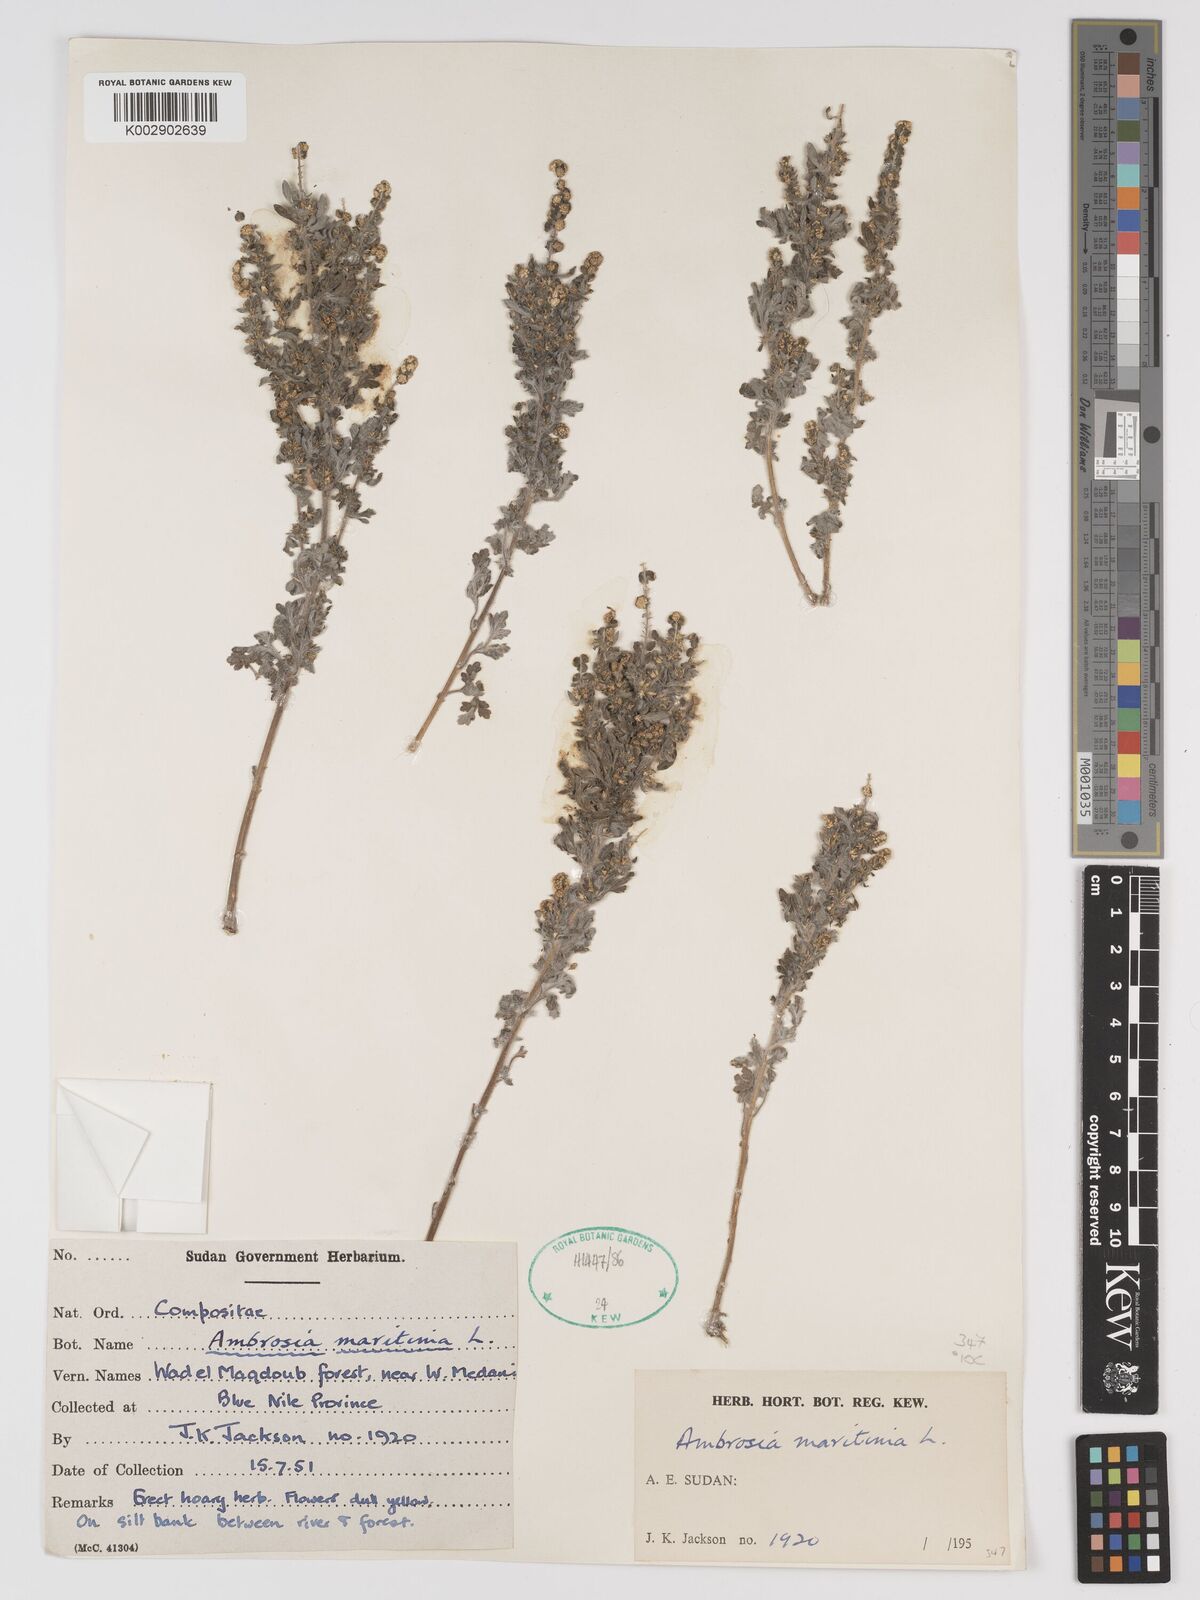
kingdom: Plantae
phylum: Tracheophyta
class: Magnoliopsida
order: Asterales
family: Asteraceae
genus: Ambrosia
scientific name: Ambrosia maritima
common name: Sea ambrosia
